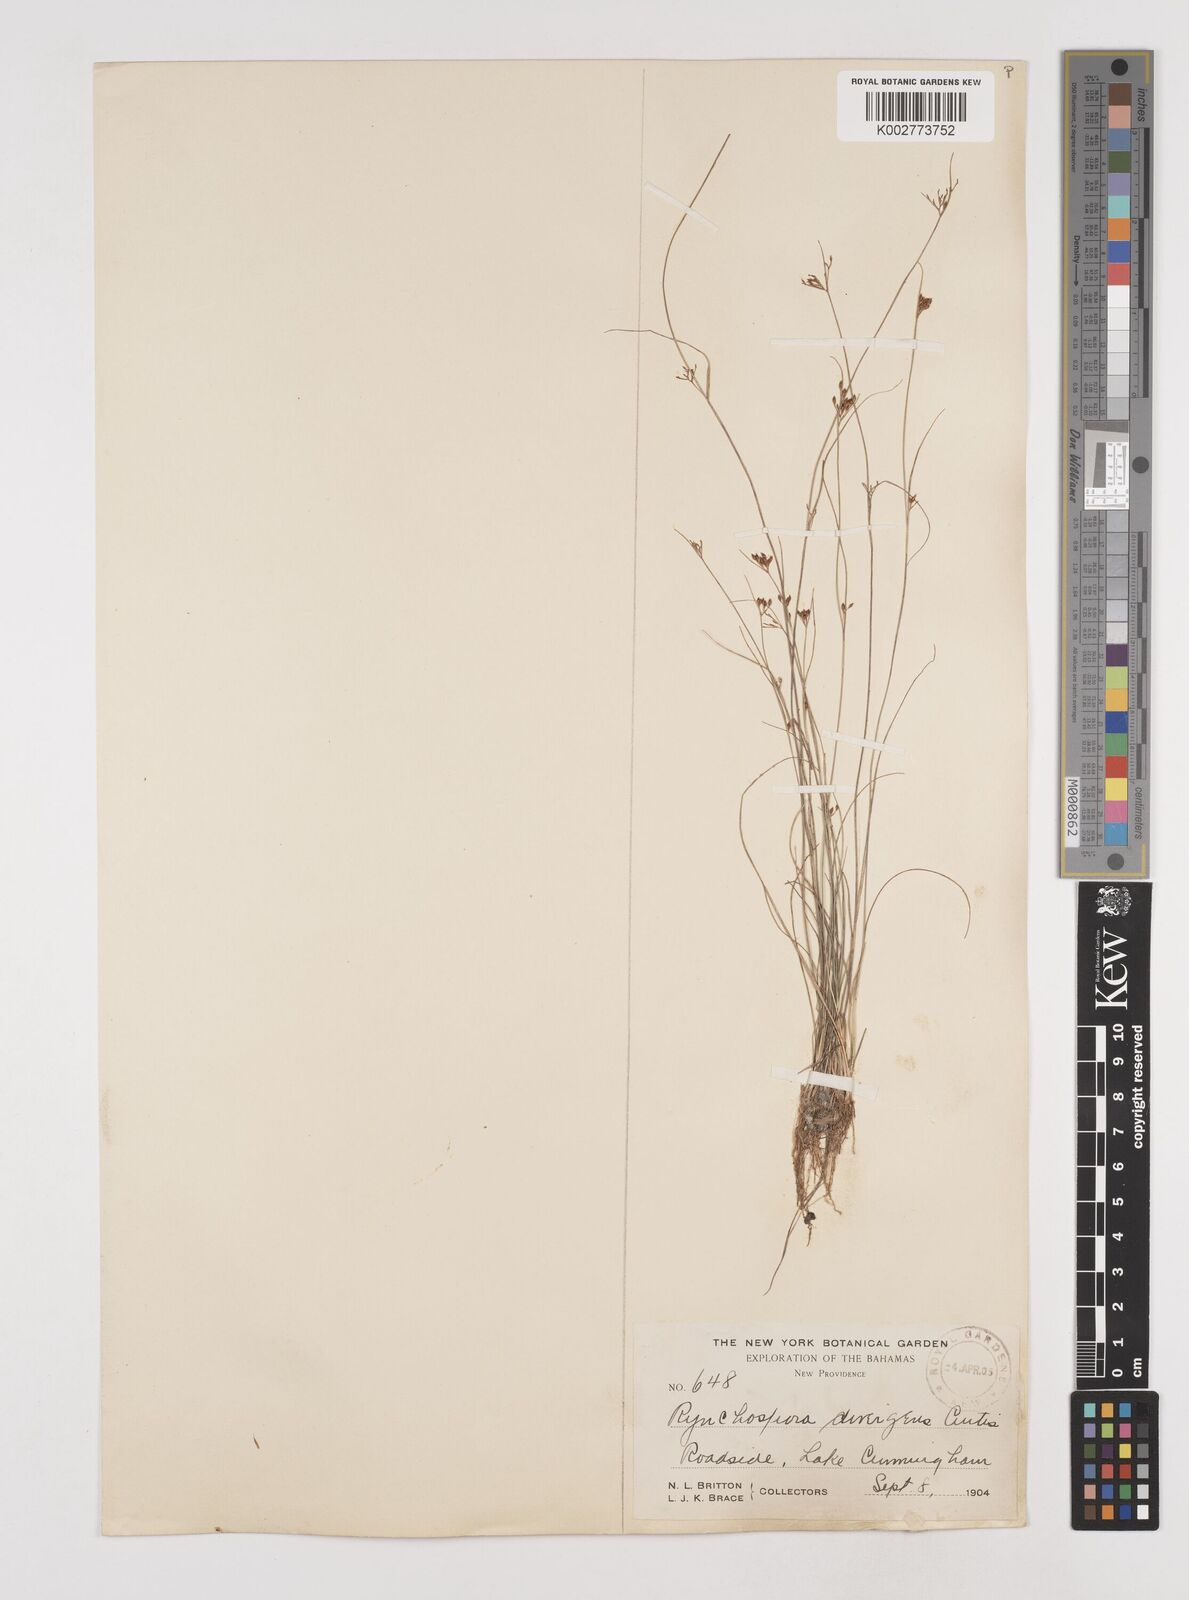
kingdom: Plantae
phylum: Tracheophyta
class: Liliopsida
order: Poales
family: Cyperaceae
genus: Rhynchospora
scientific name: Rhynchospora divergens
